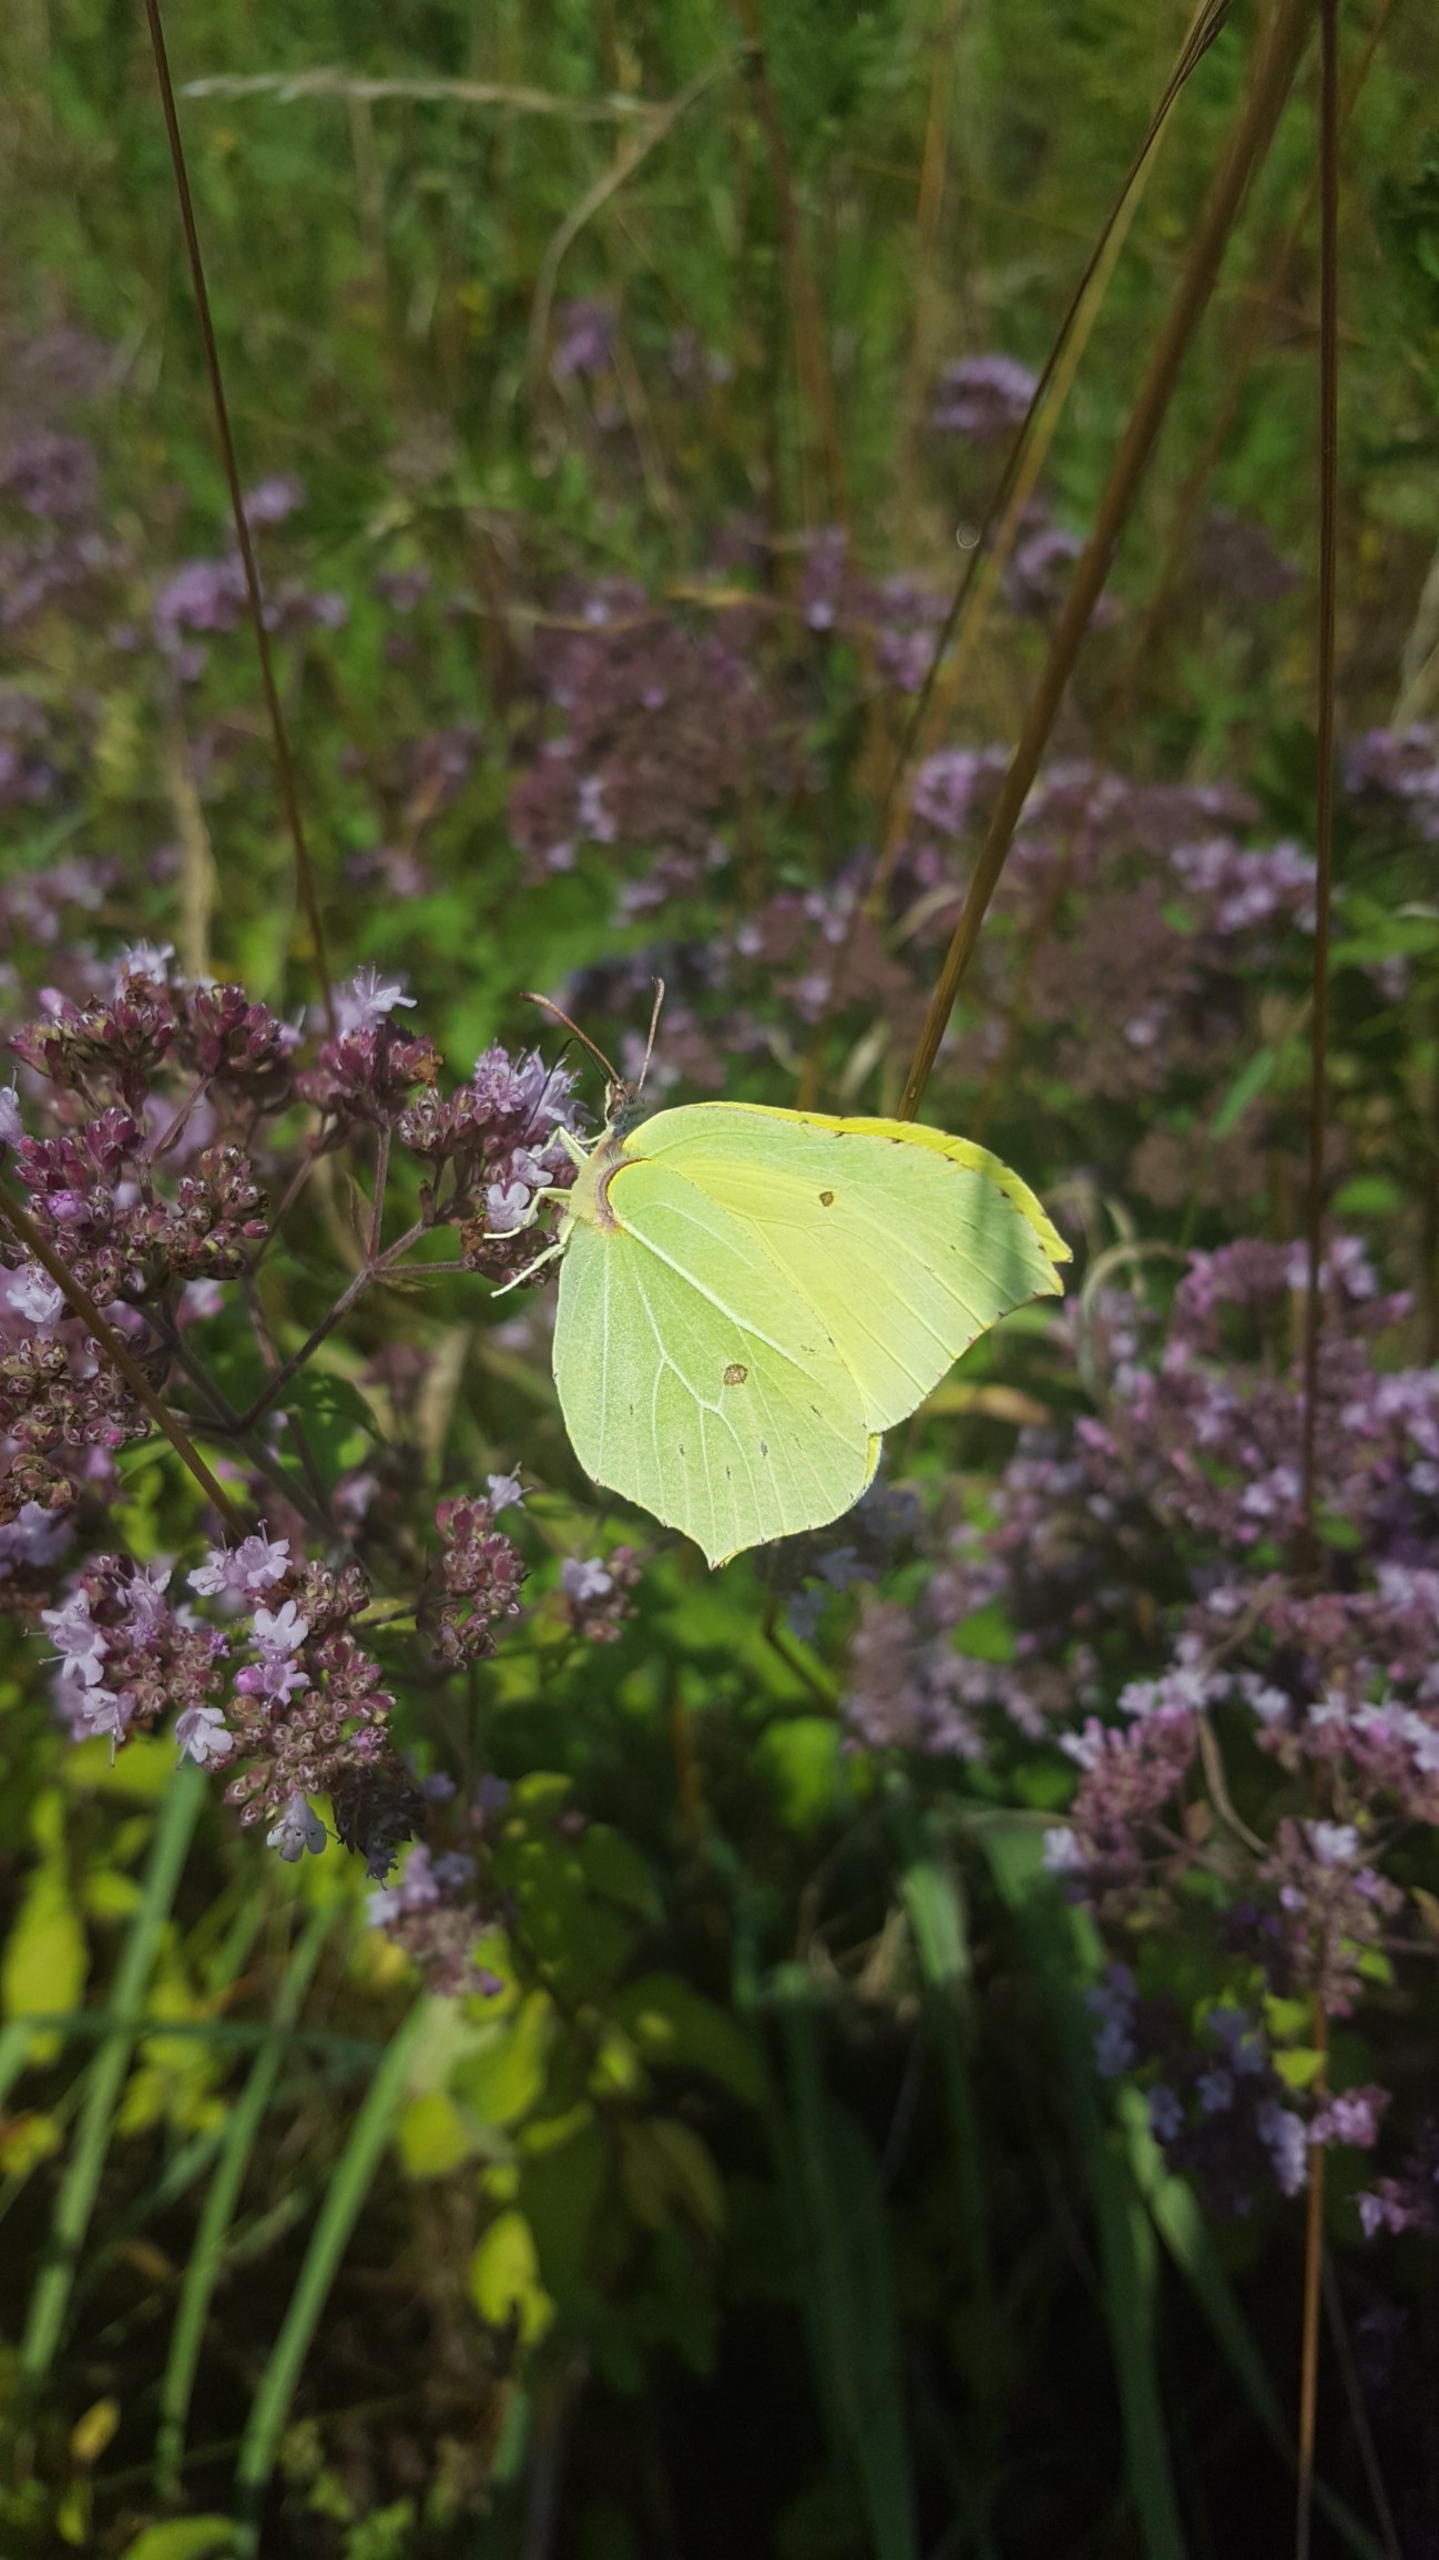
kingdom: Animalia
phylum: Arthropoda
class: Insecta
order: Lepidoptera
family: Pieridae
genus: Gonepteryx
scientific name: Gonepteryx rhamni
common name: Citronsommerfugl
